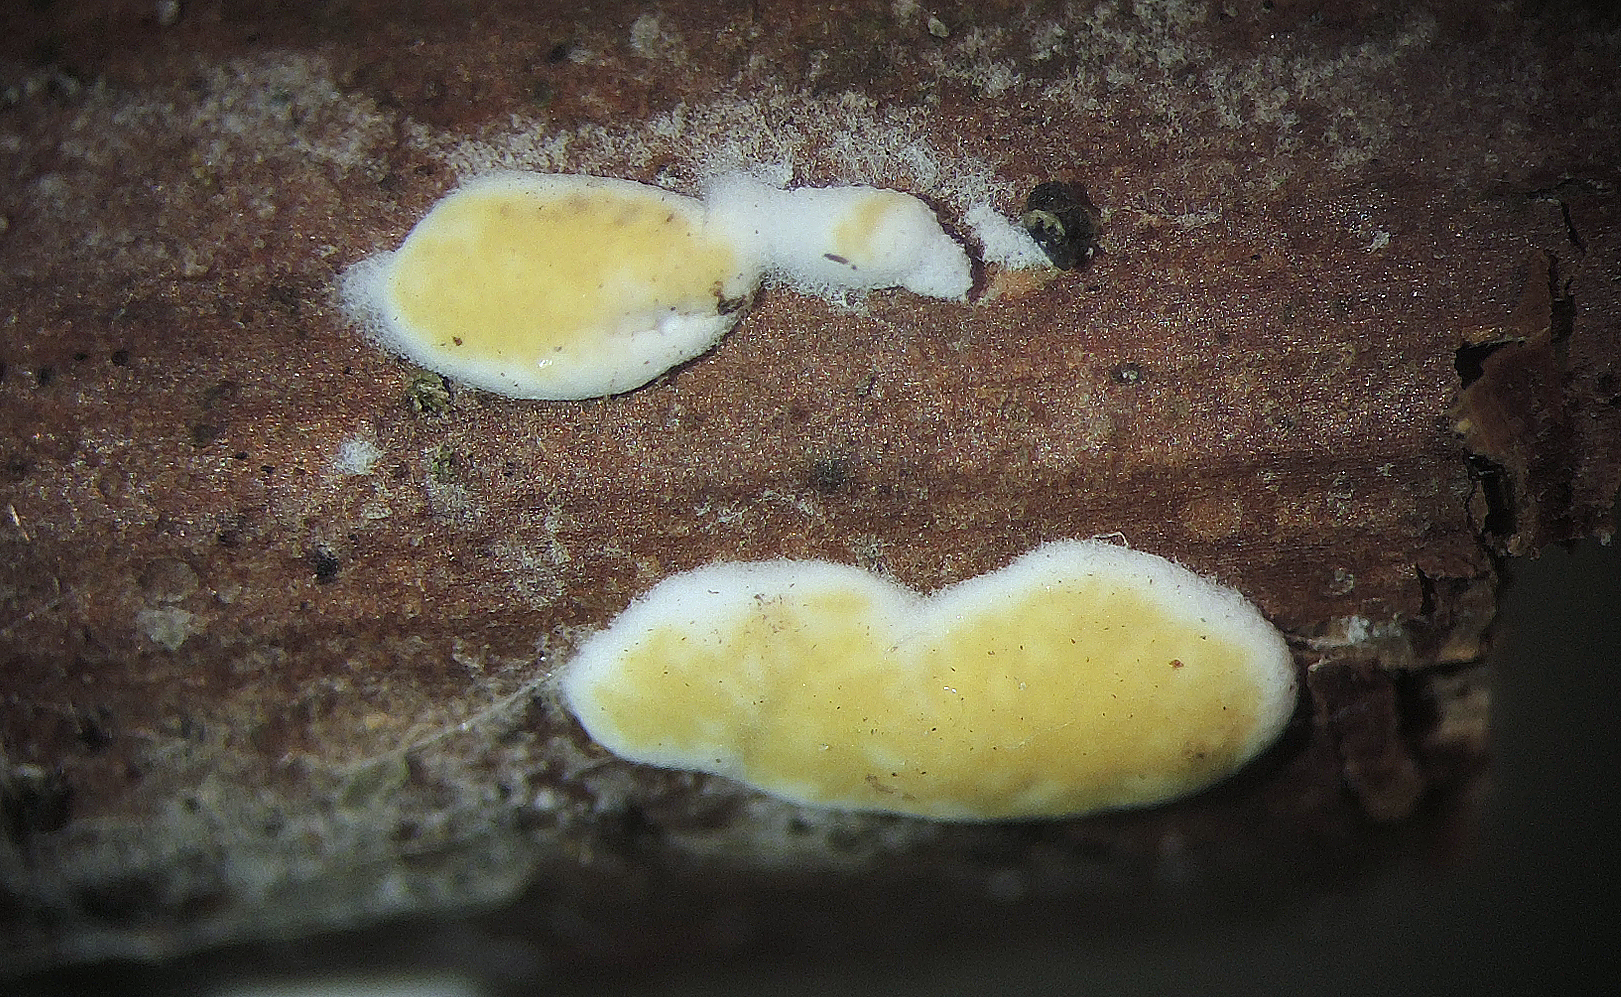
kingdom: Fungi
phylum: Ascomycota
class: Sordariomycetes
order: Hypocreales
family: Hypocreaceae
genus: Trichoderma
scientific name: Trichoderma
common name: kødkerne
